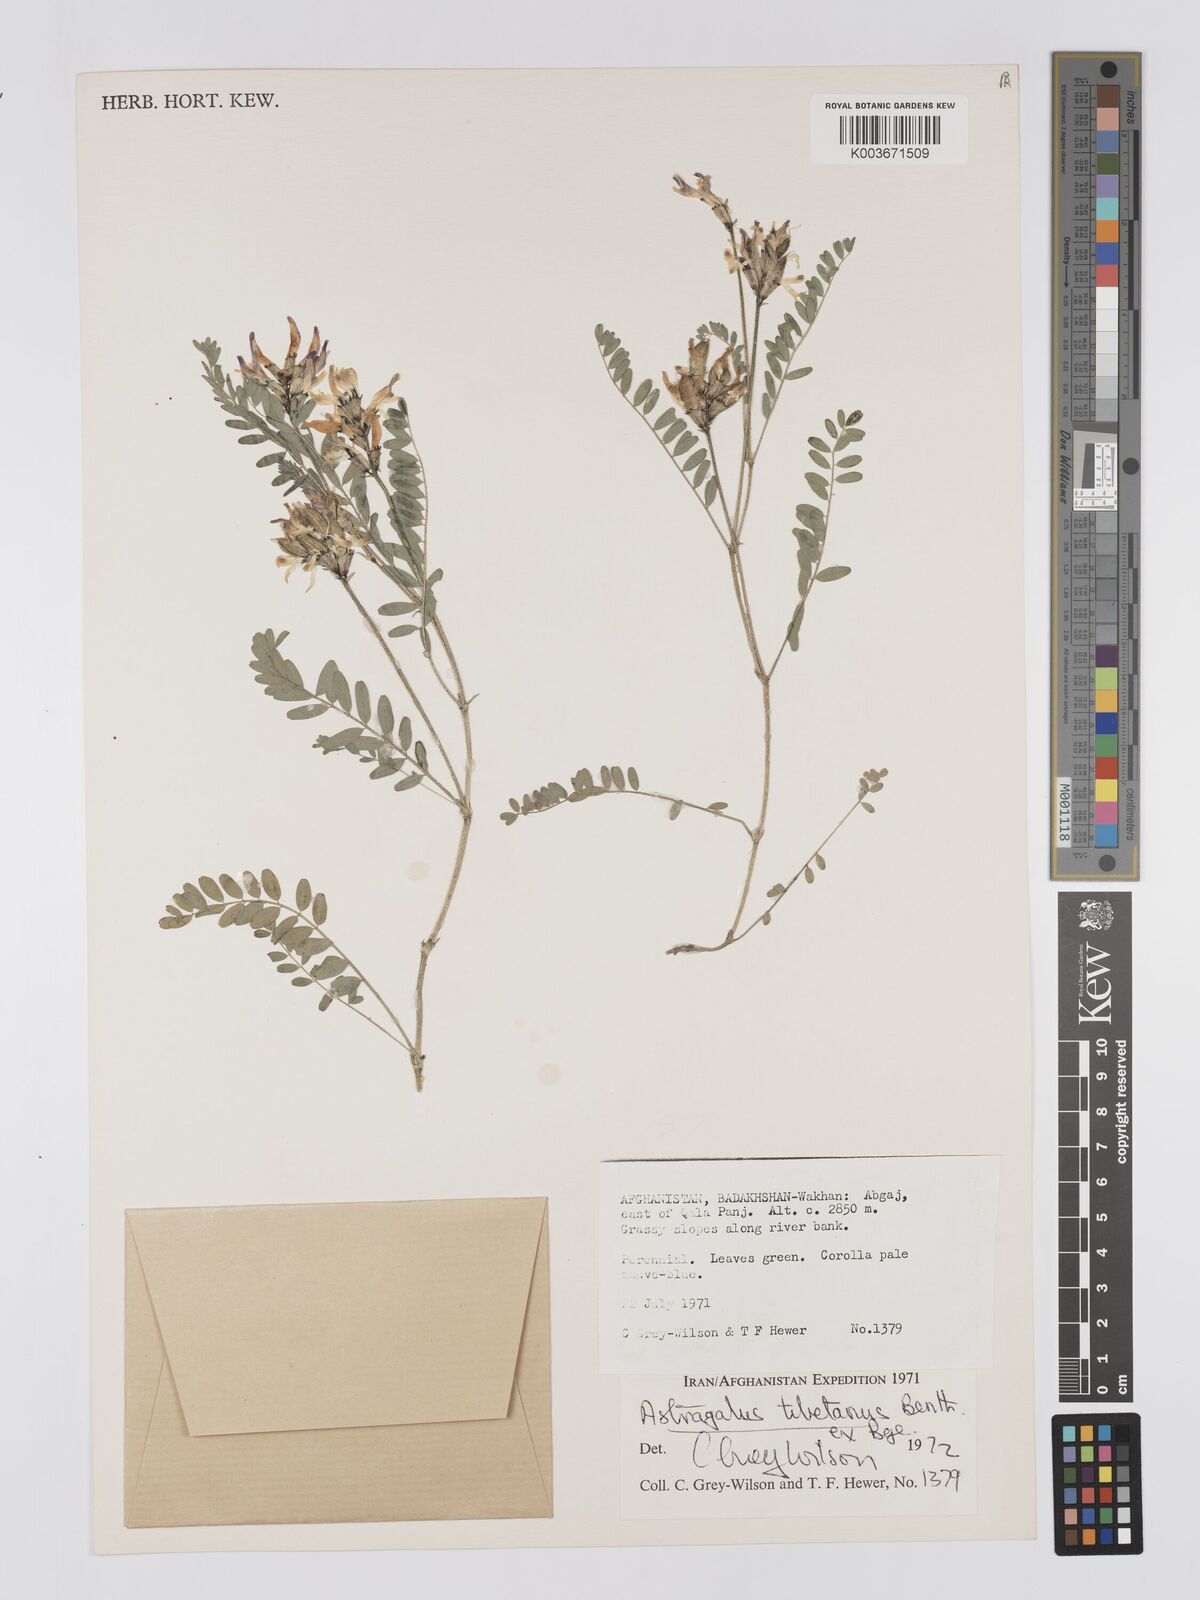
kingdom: Plantae
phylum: Tracheophyta
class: Magnoliopsida
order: Fabales
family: Fabaceae
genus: Astragalus
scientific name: Astragalus tibetanus
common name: Tibet milkvetch
